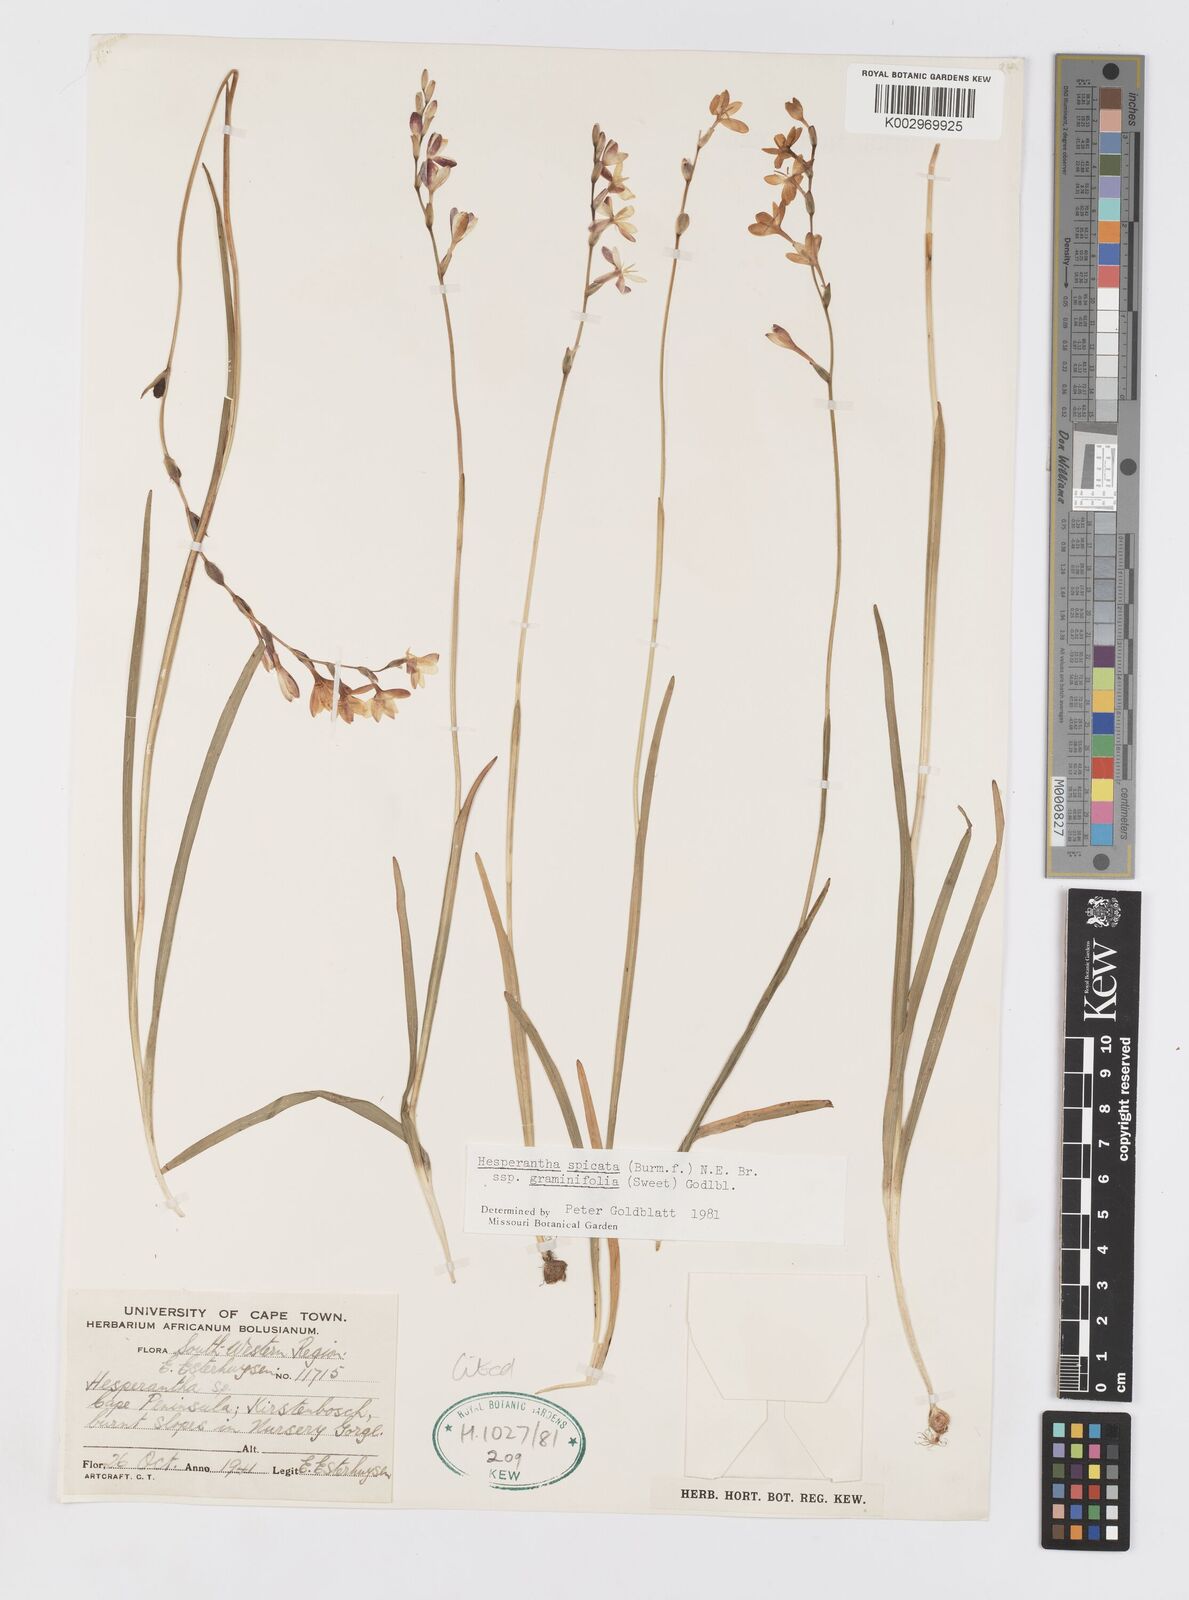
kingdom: Plantae
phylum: Tracheophyta
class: Liliopsida
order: Asparagales
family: Iridaceae
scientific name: Iridaceae
